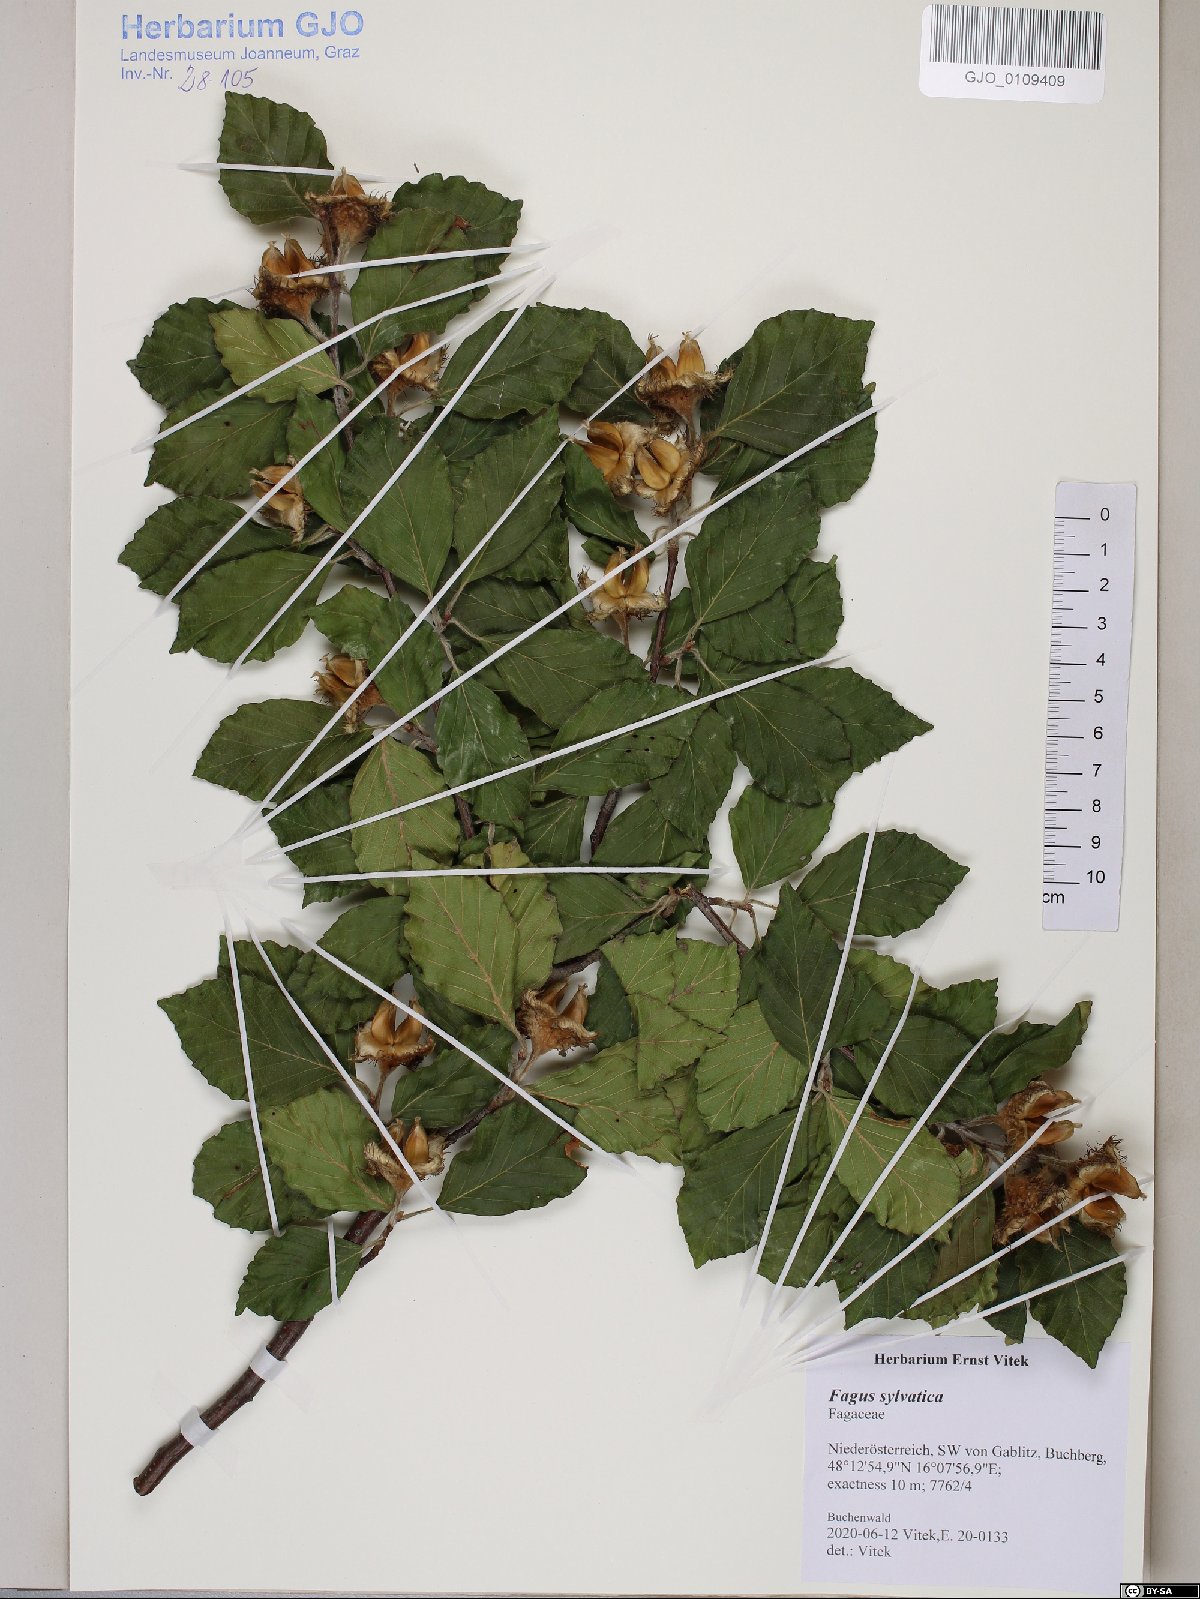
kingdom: Plantae
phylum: Tracheophyta
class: Magnoliopsida
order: Fagales
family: Fagaceae
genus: Fagus
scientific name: Fagus sylvatica
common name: Beech
